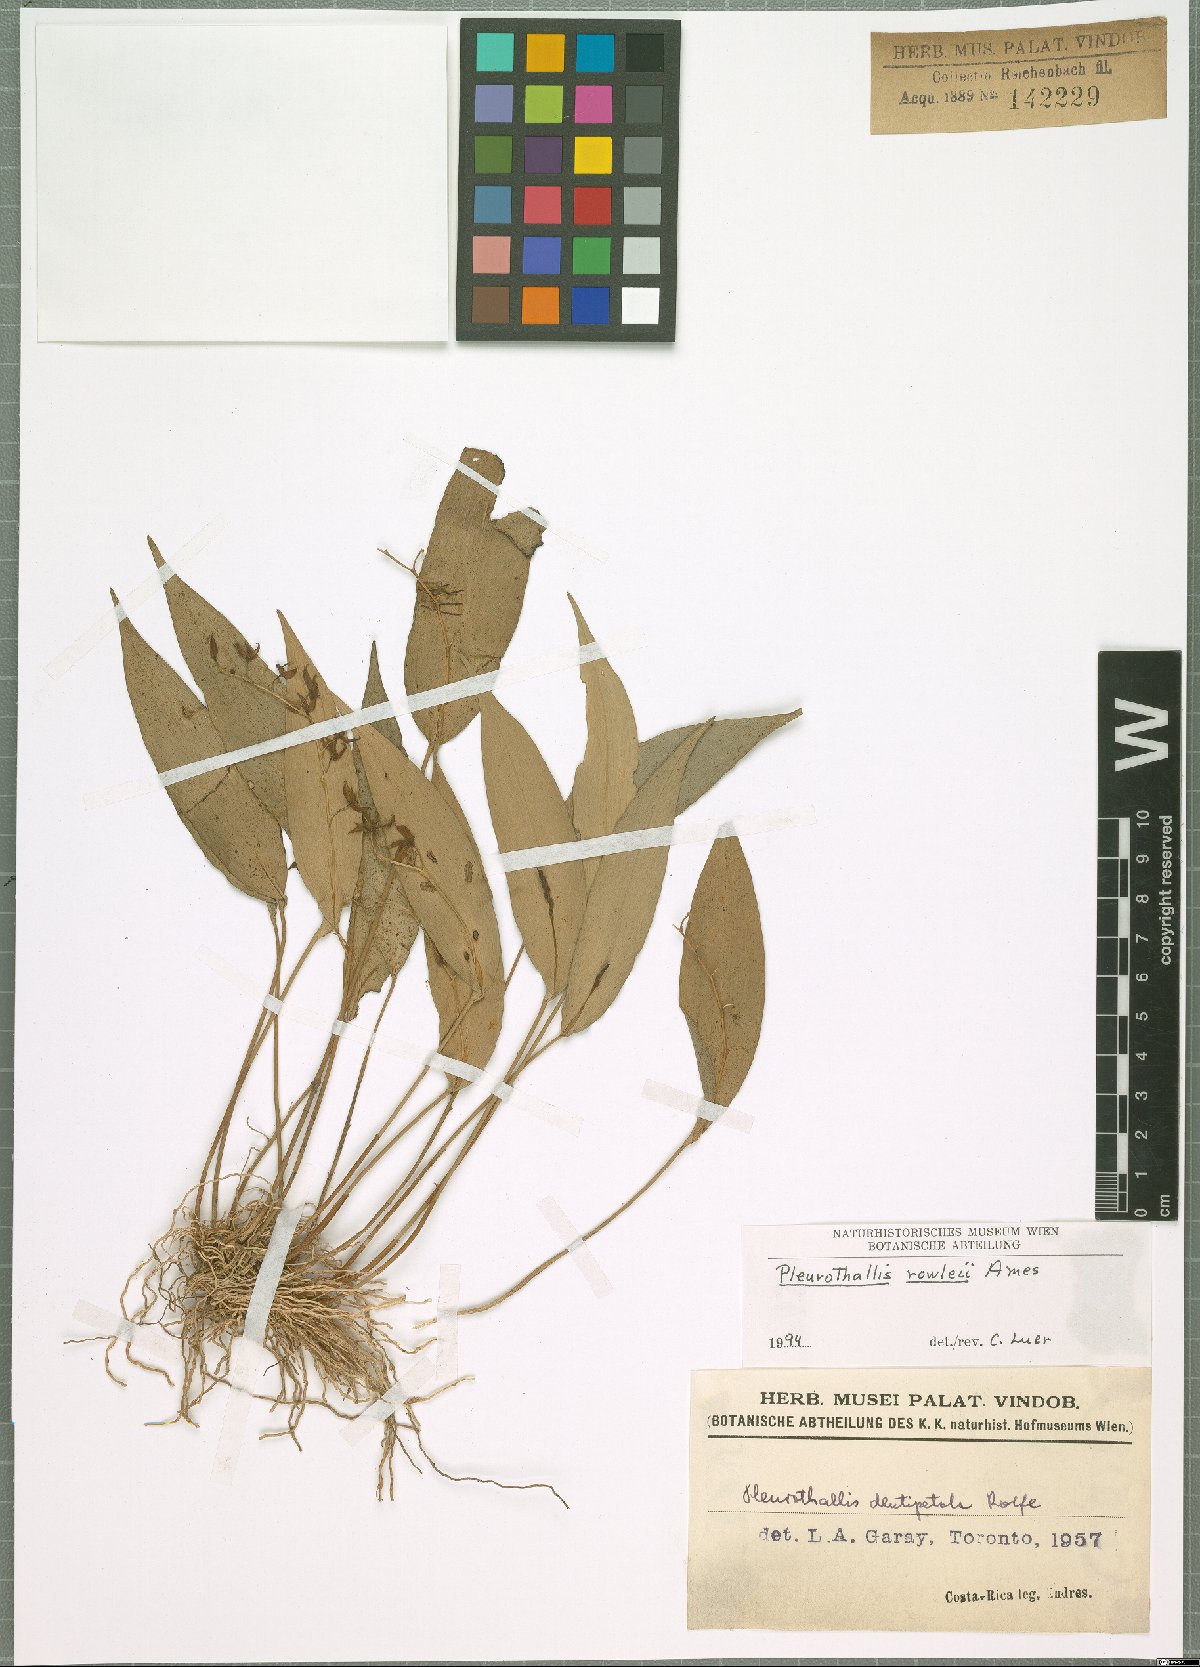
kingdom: Plantae
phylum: Tracheophyta
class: Liliopsida
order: Asparagales
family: Orchidaceae
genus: Pleurothallis
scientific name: Pleurothallis rowleei
